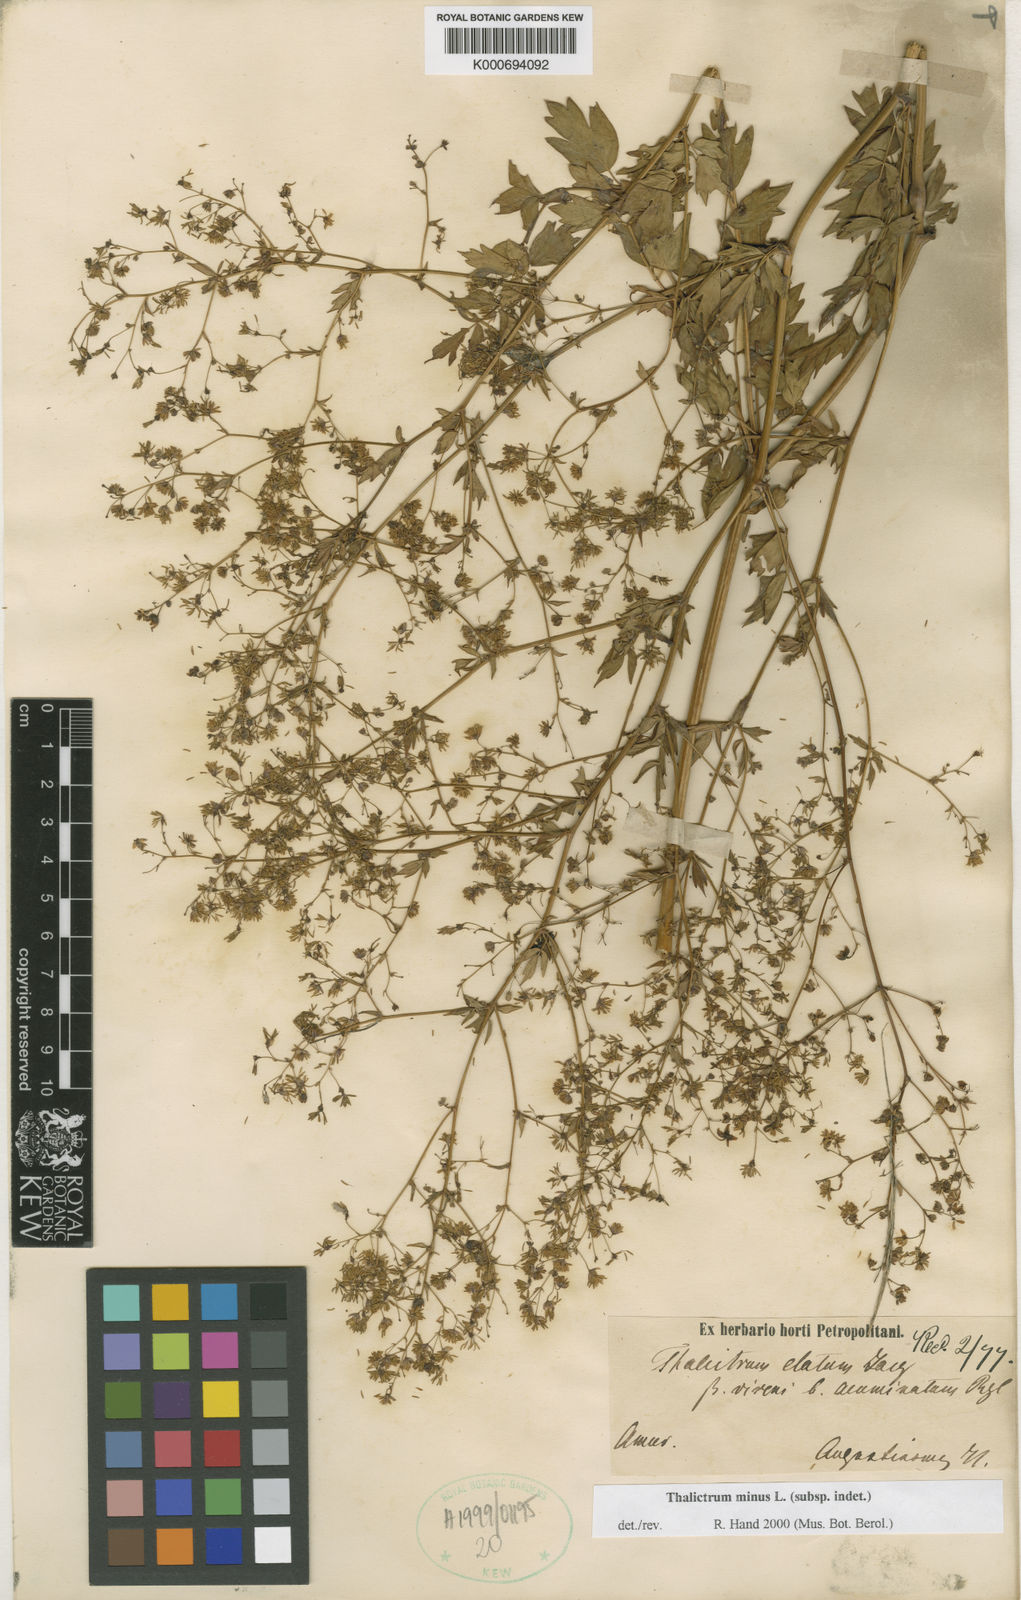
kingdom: Plantae
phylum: Tracheophyta
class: Magnoliopsida
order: Ranunculales
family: Ranunculaceae
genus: Thalictrum
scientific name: Thalictrum
